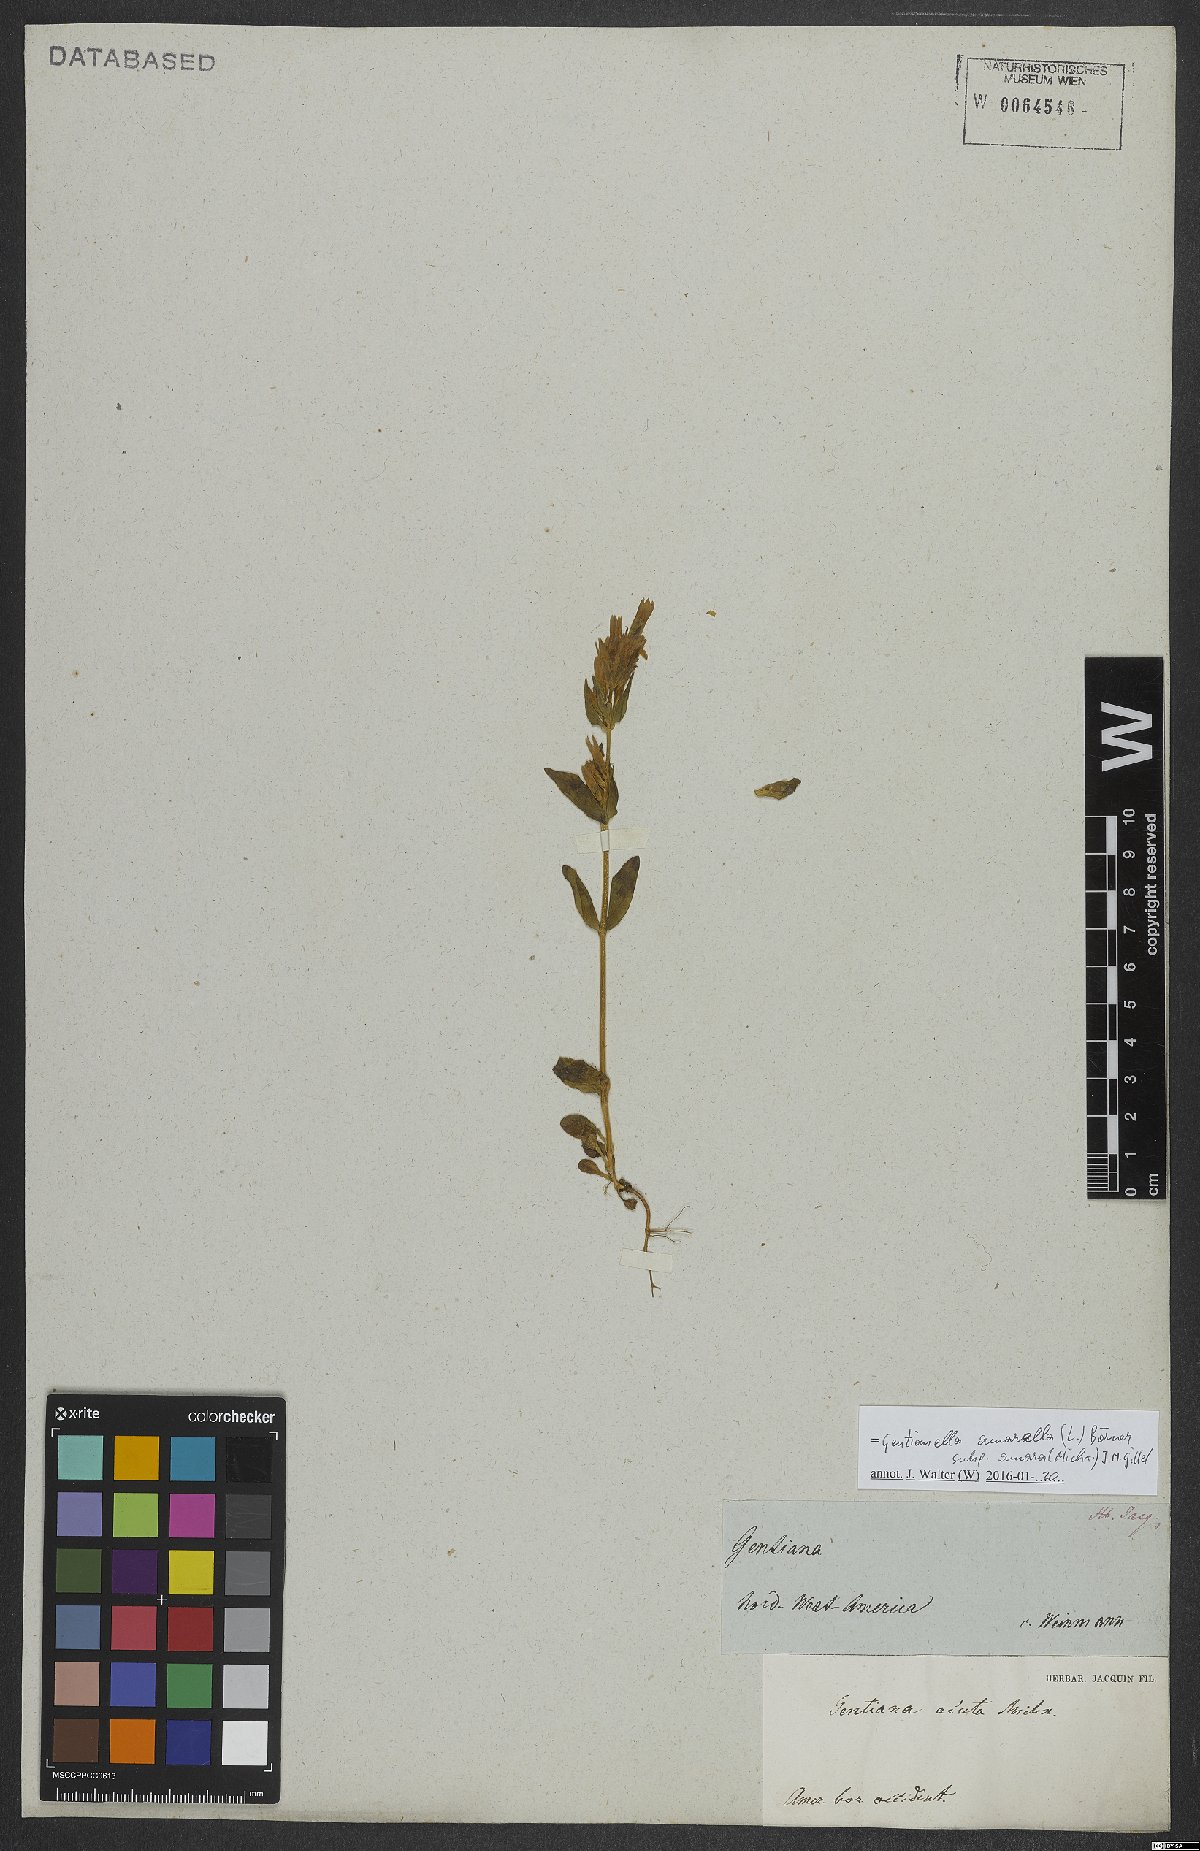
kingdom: Plantae
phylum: Tracheophyta
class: Magnoliopsida
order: Gentianales
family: Gentianaceae
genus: Gentianella
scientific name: Gentianella amarella
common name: Autumn gentian
